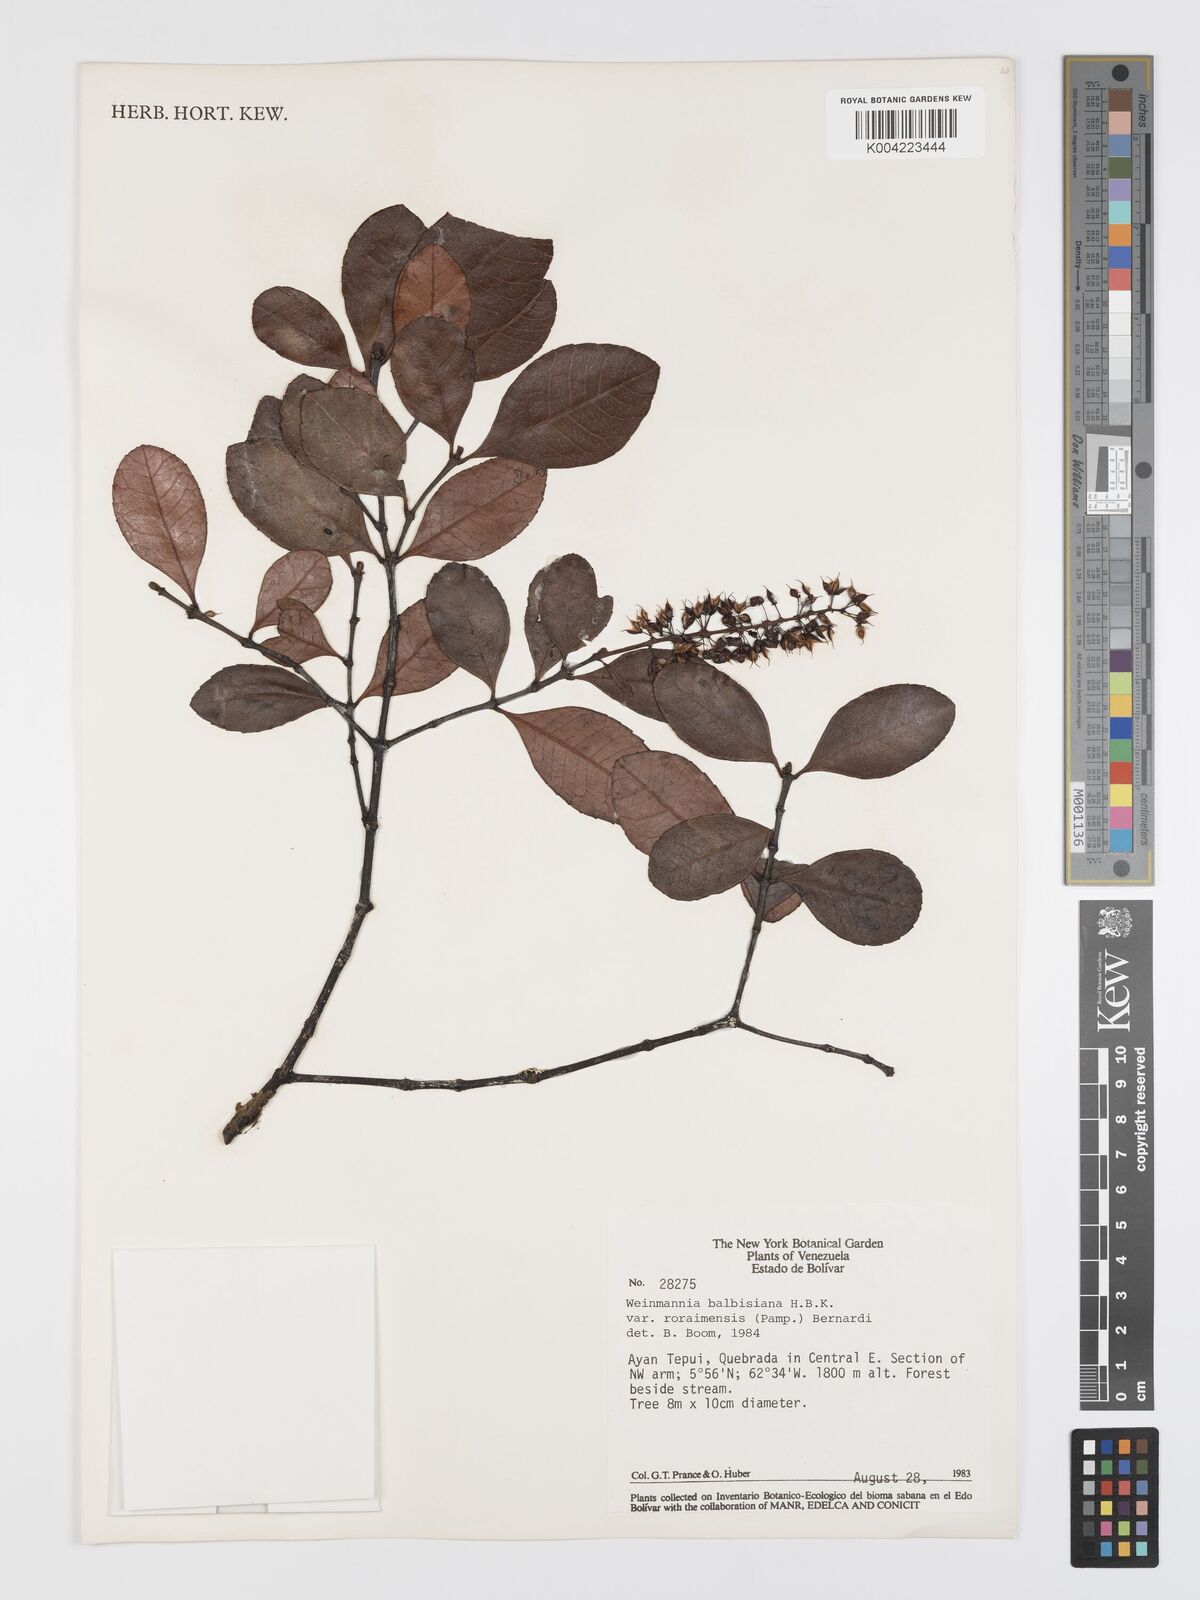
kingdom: Plantae
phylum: Tracheophyta
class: Magnoliopsida
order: Oxalidales
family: Cunoniaceae
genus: Weinmannia
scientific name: Weinmannia elliptica
